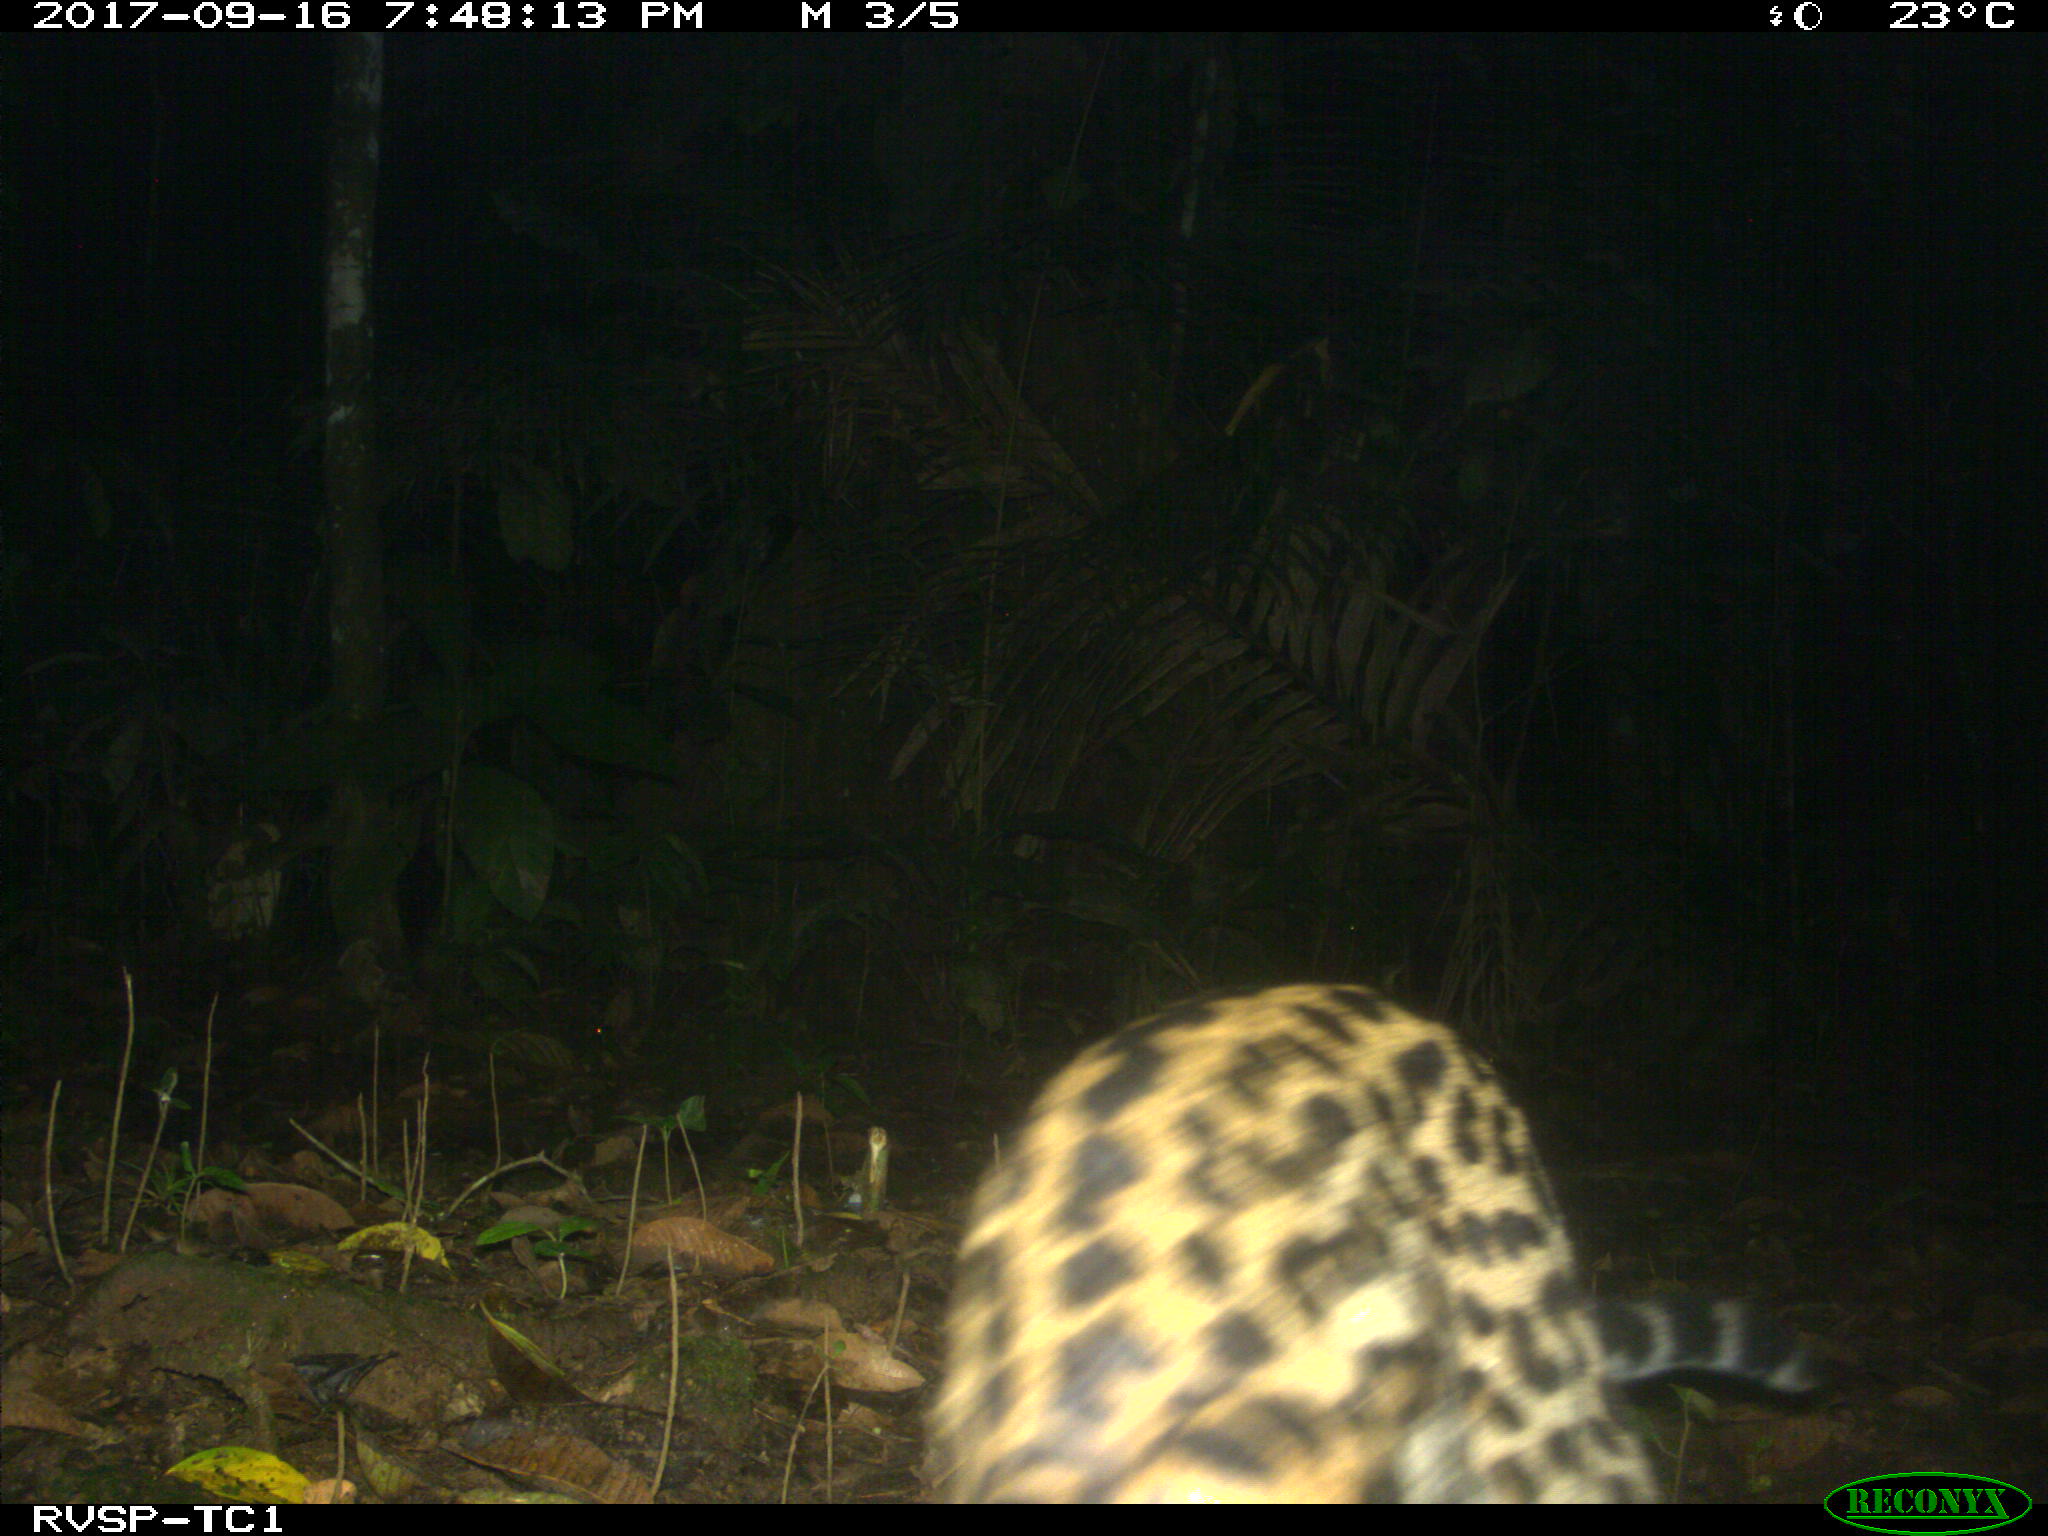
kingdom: Animalia
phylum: Chordata
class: Mammalia
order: Carnivora
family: Felidae
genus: Leopardus
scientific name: Leopardus pardalis
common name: Ocelot
